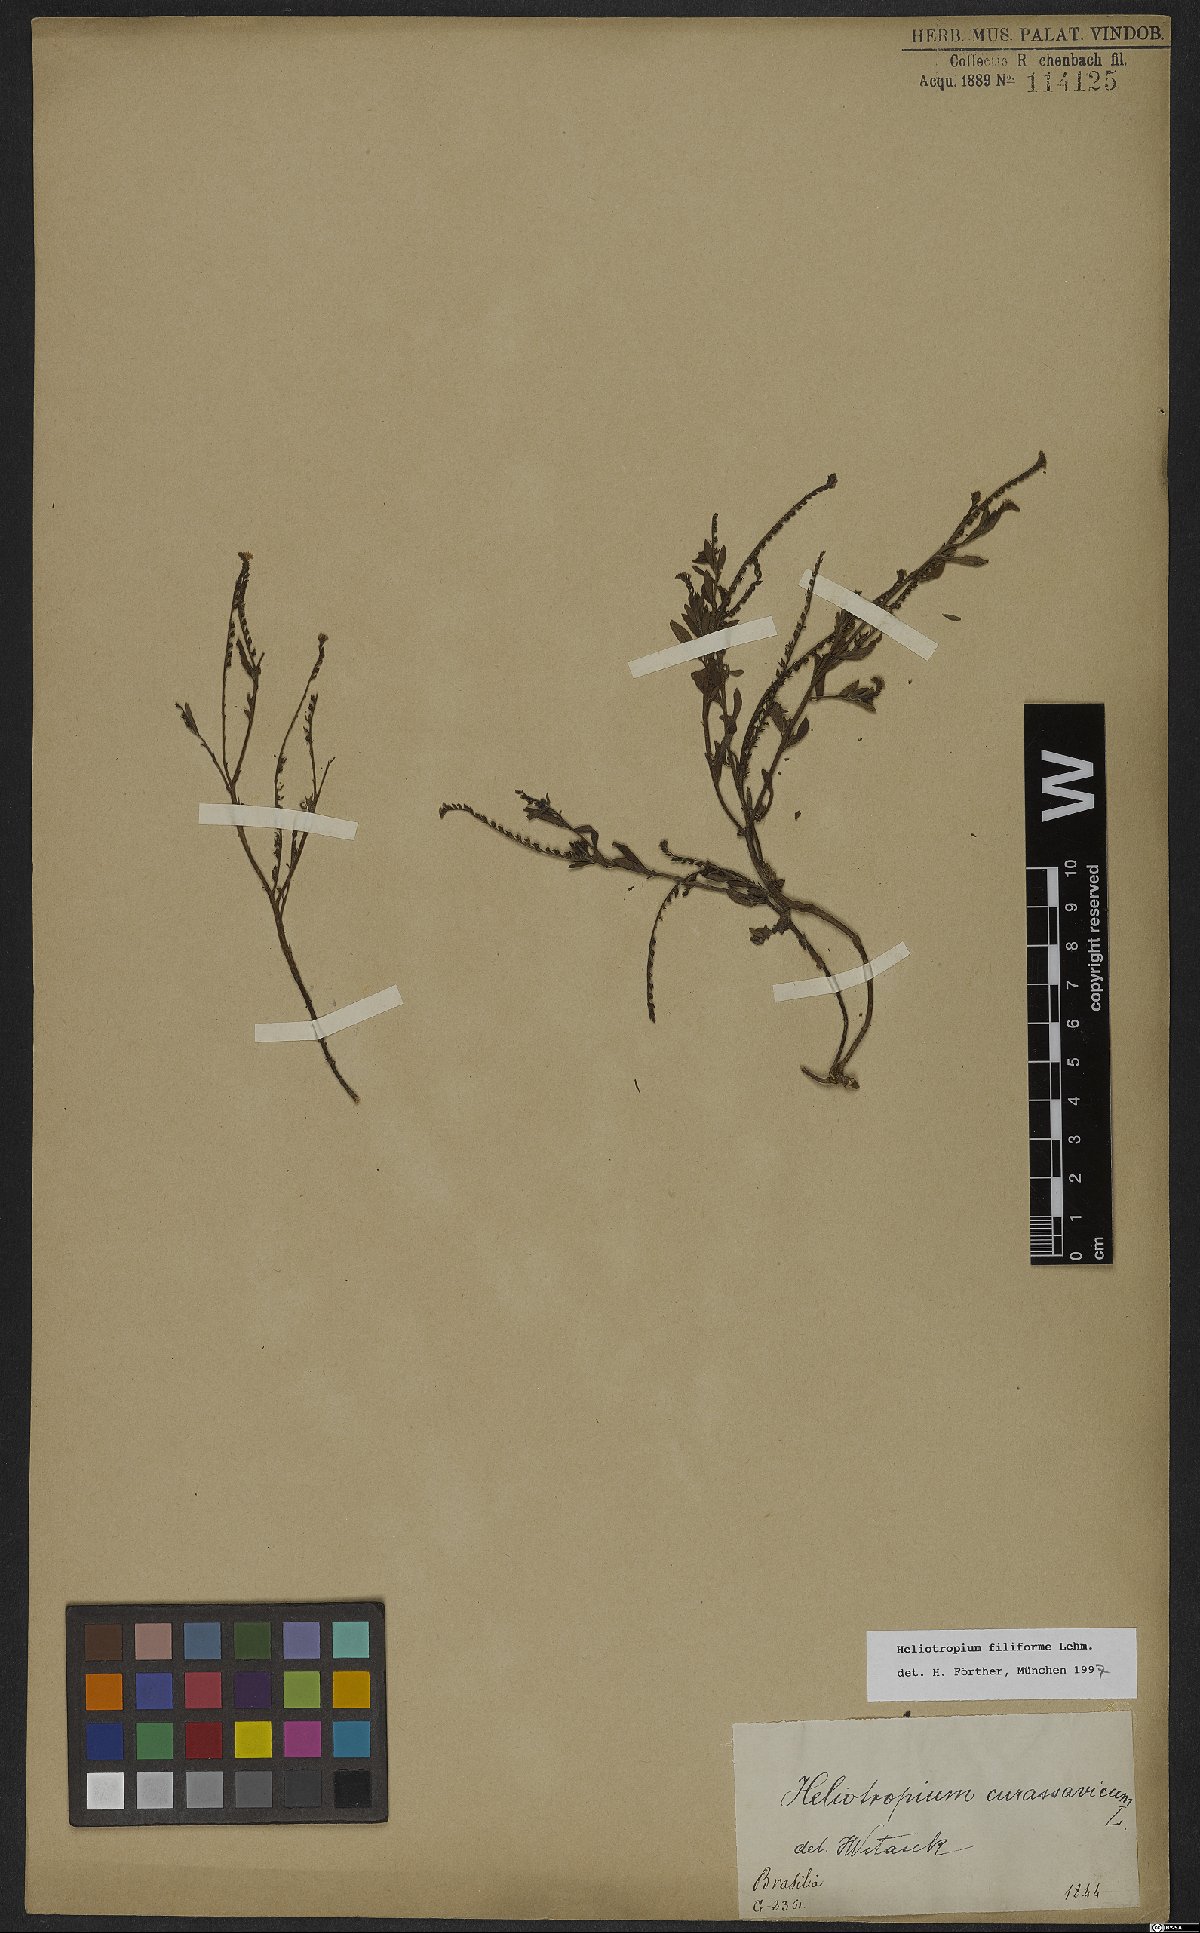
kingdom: Plantae
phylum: Tracheophyta
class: Magnoliopsida
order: Boraginales
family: Heliotropiaceae
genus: Euploca
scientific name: Euploca filiformis
